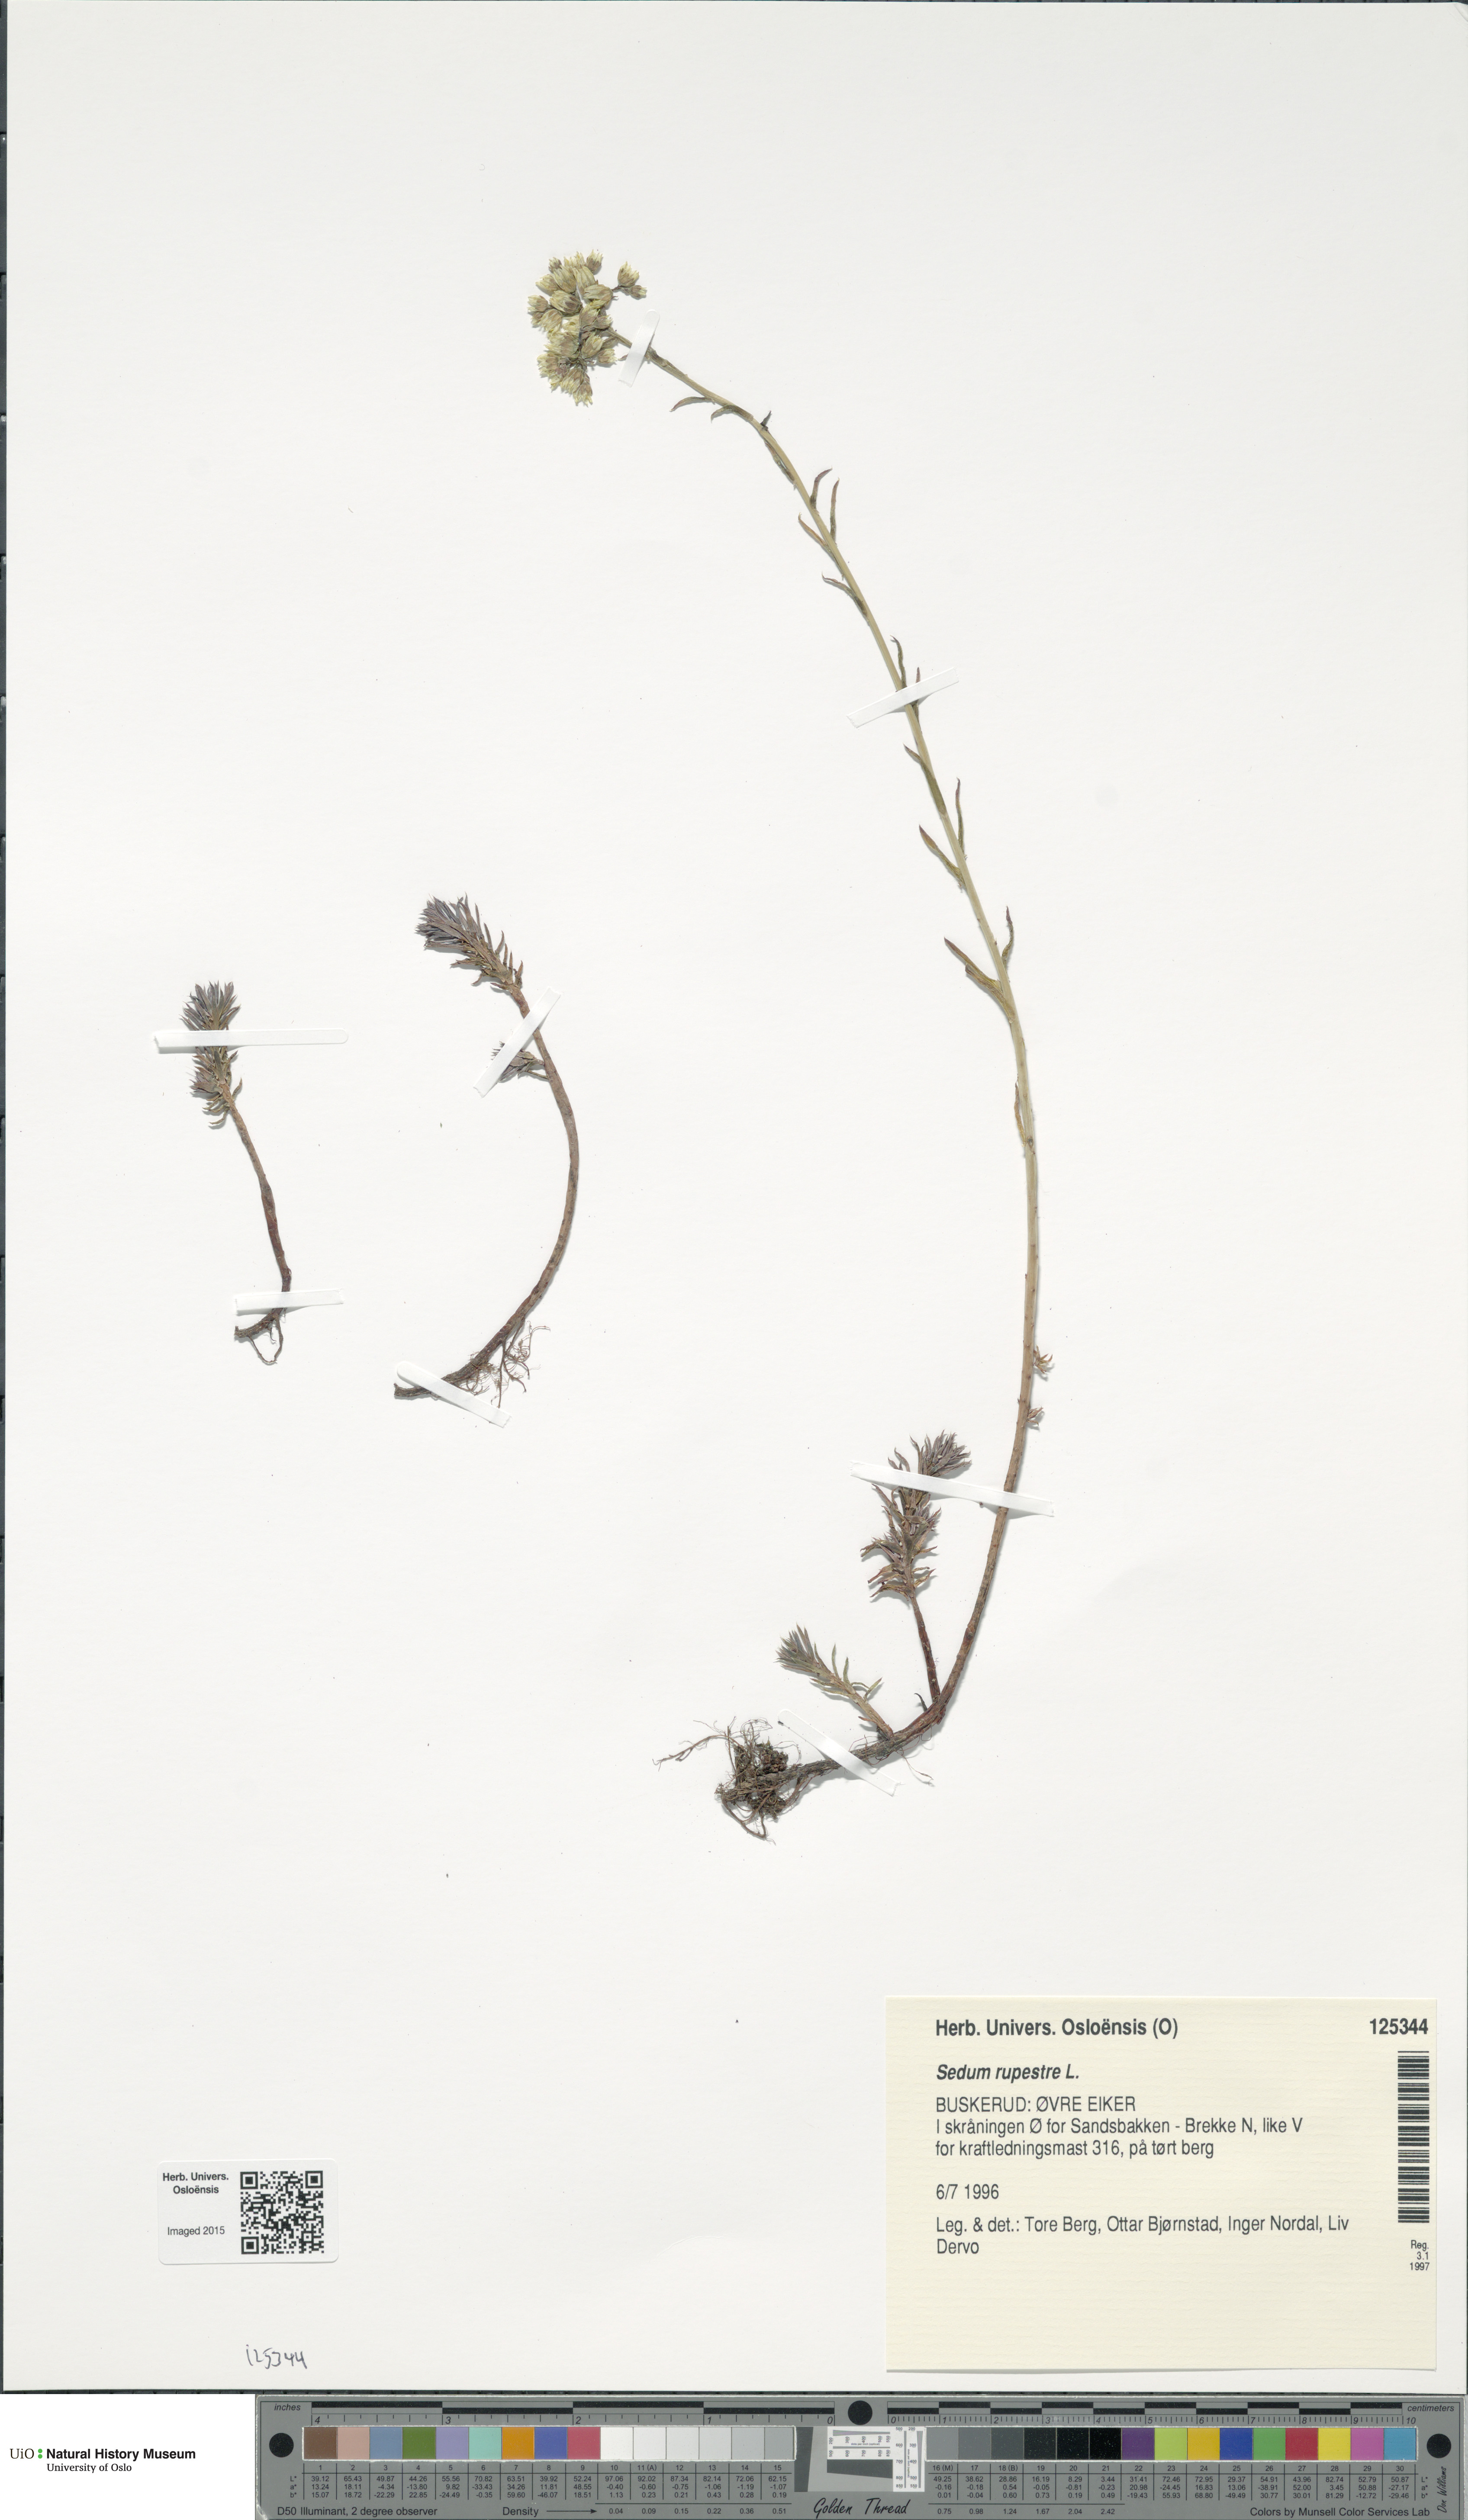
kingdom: Plantae
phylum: Tracheophyta
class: Magnoliopsida
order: Saxifragales
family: Crassulaceae
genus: Petrosedum
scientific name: Petrosedum rupestre
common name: Jenny's stonecrop
